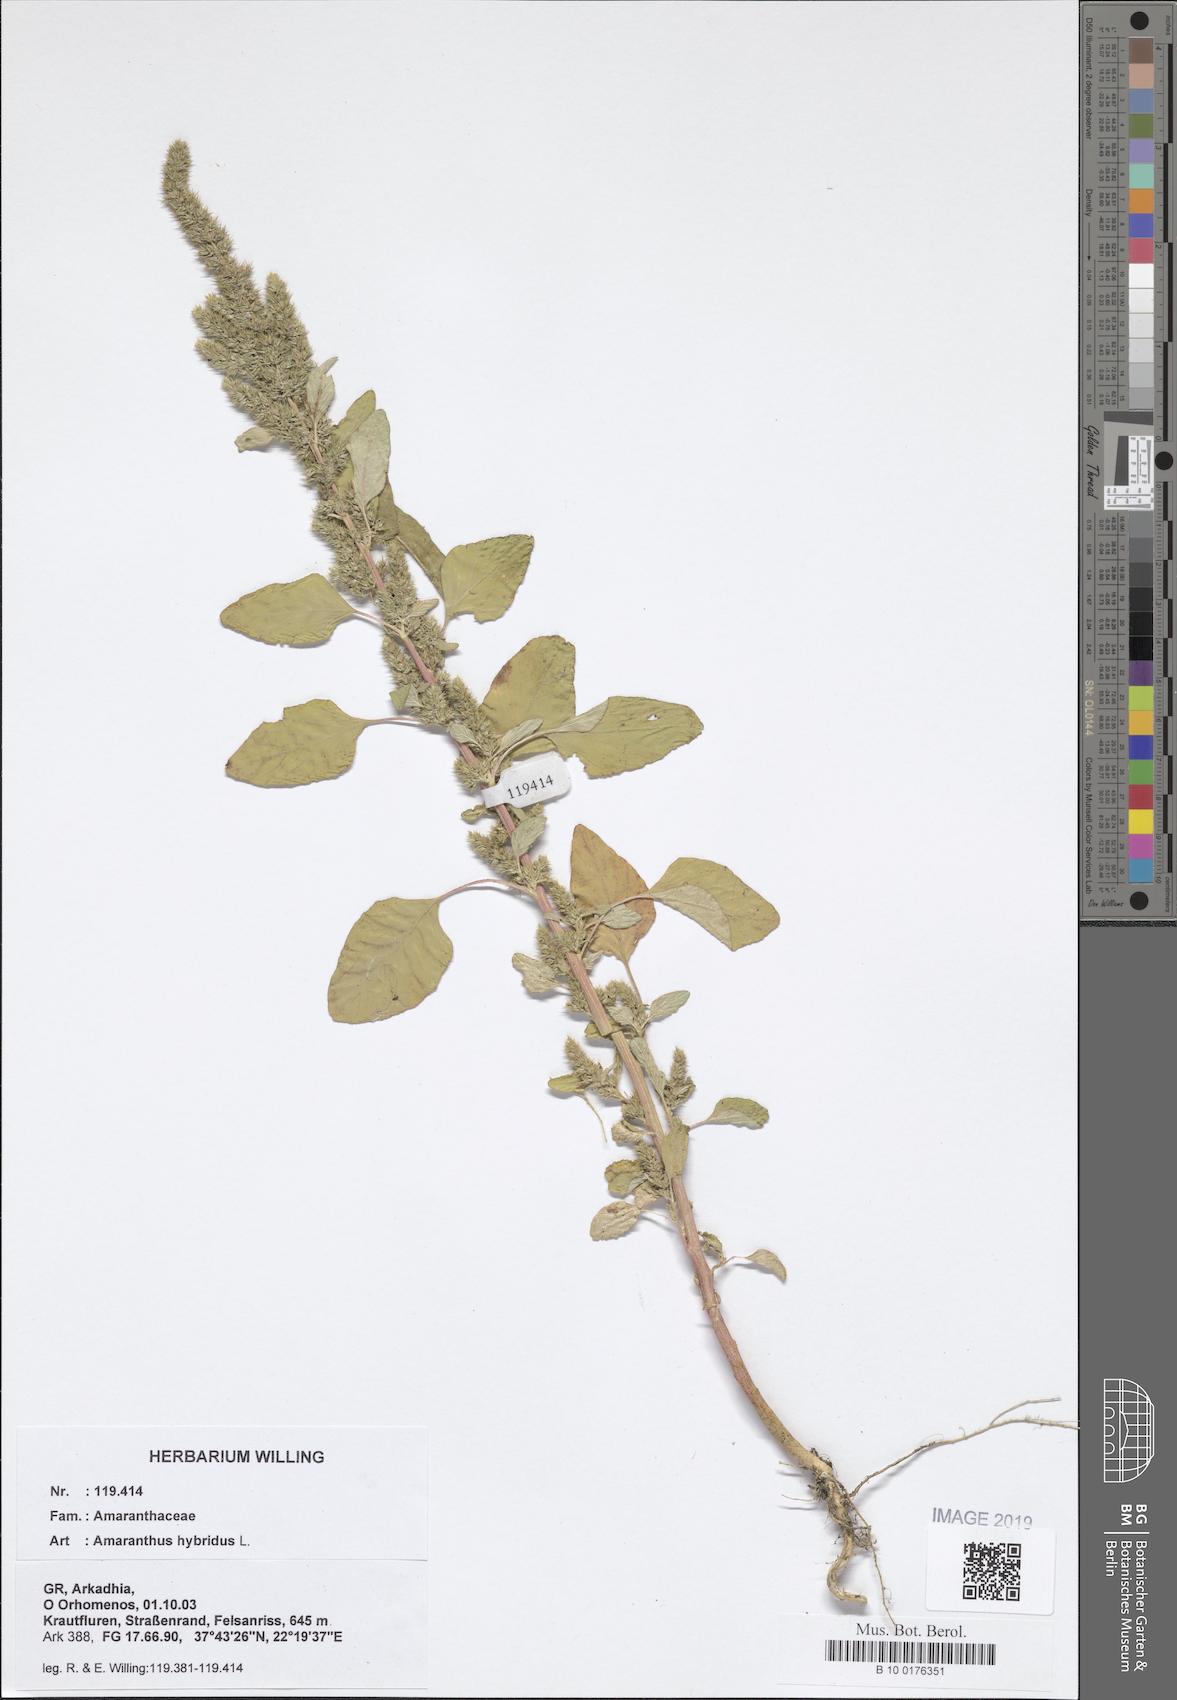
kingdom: Plantae
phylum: Tracheophyta
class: Magnoliopsida
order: Caryophyllales
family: Amaranthaceae
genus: Amaranthus
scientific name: Amaranthus hybridus
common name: Green amaranth
